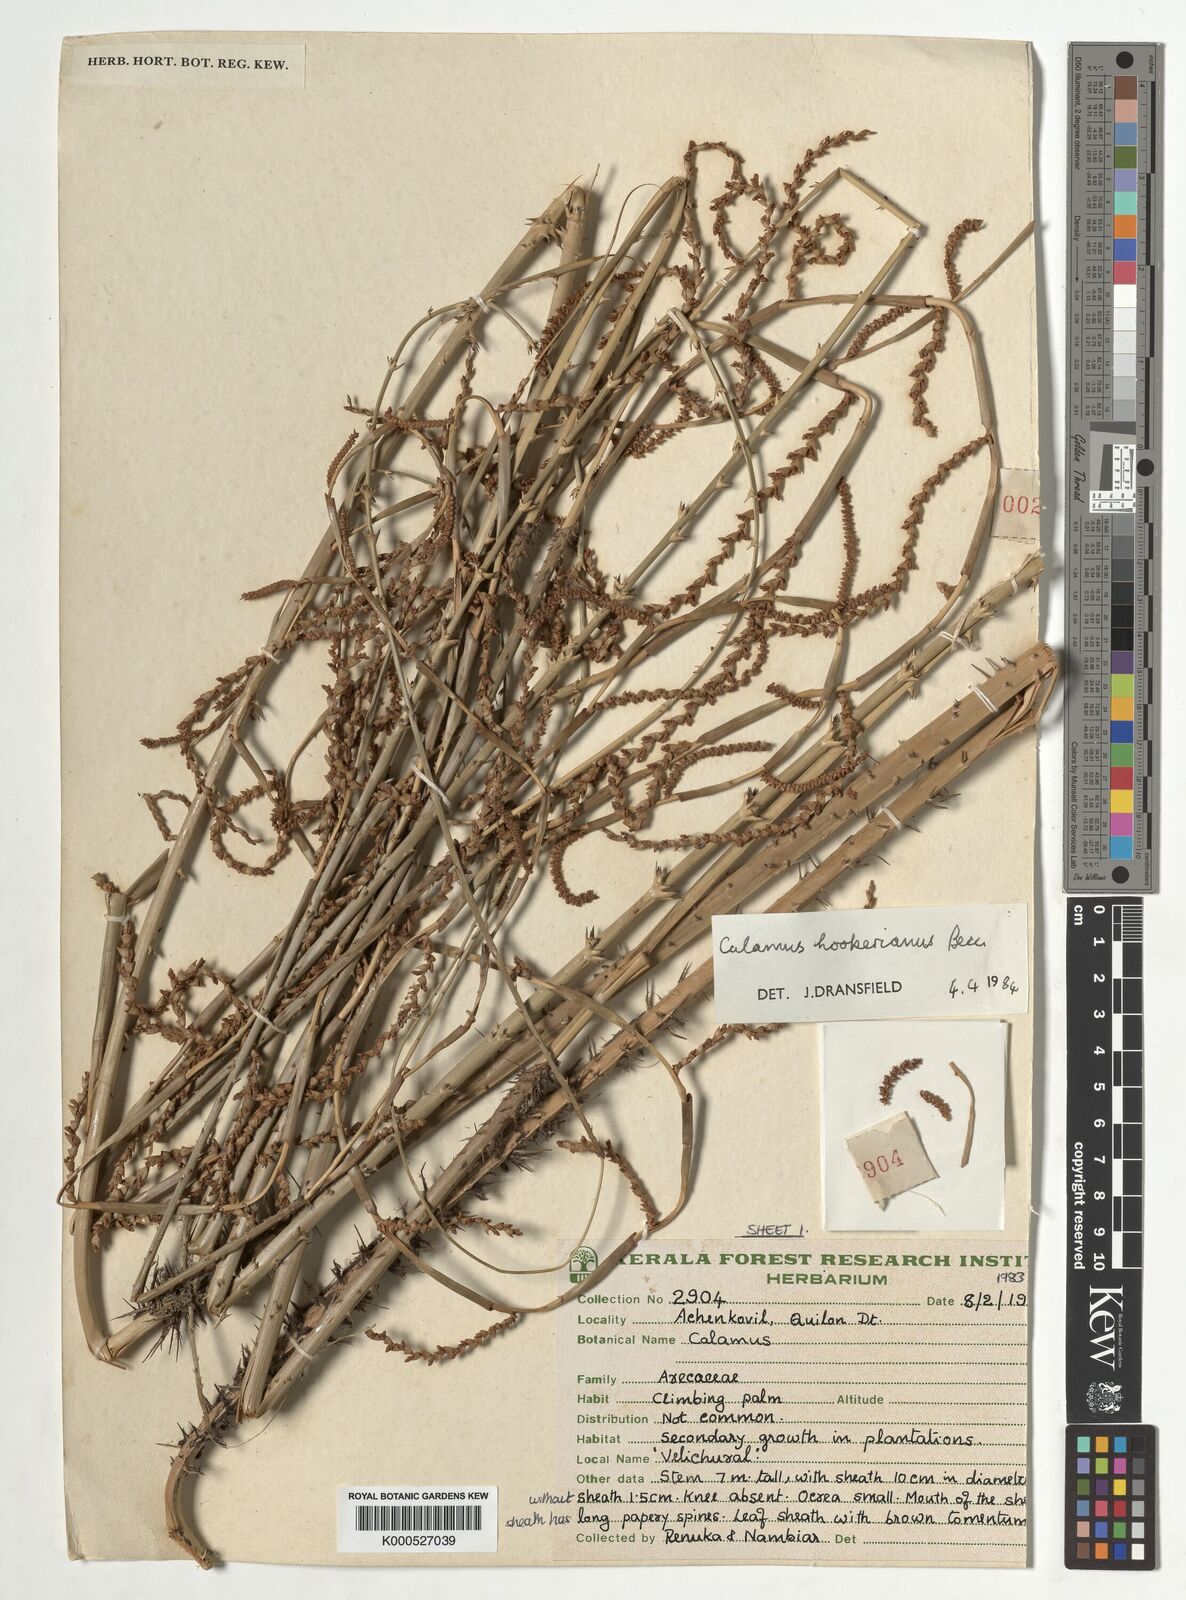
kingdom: Plantae
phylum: Tracheophyta
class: Liliopsida
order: Arecales
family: Arecaceae
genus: Calamus
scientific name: Calamus hookerianus
